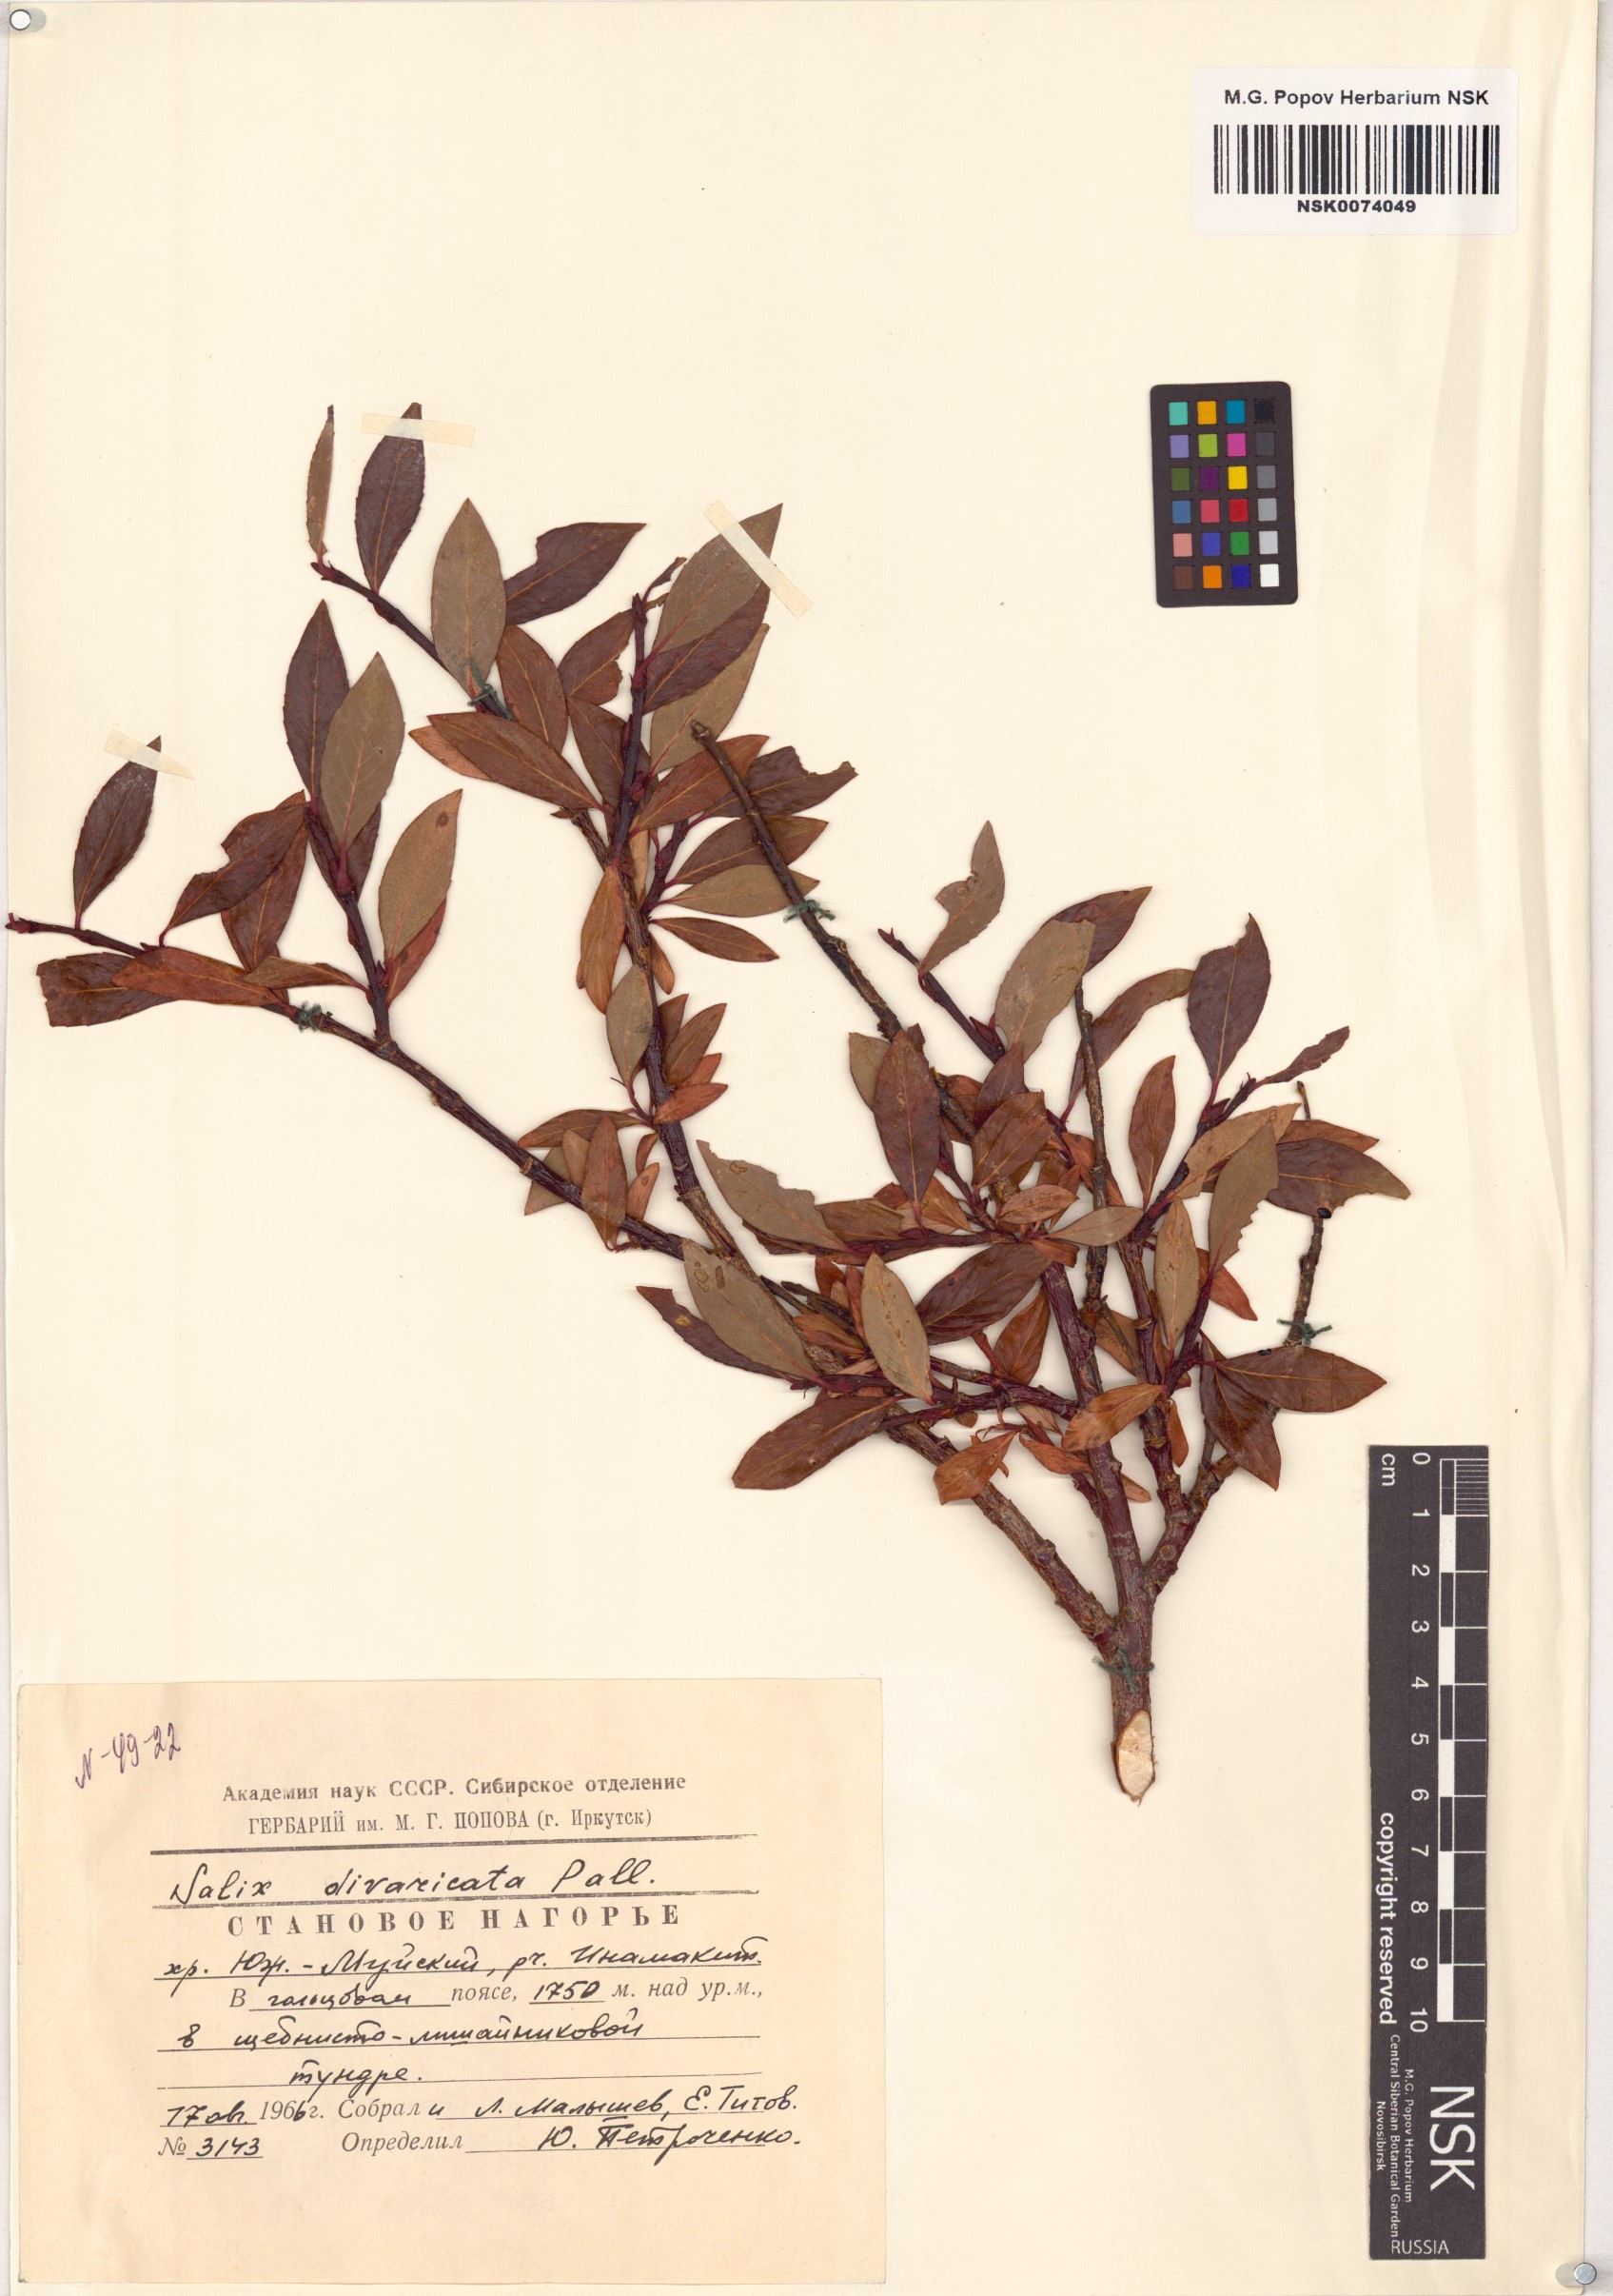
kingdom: Plantae
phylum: Tracheophyta
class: Magnoliopsida
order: Malpighiales
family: Salicaceae
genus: Salix
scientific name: Salix divaricata
